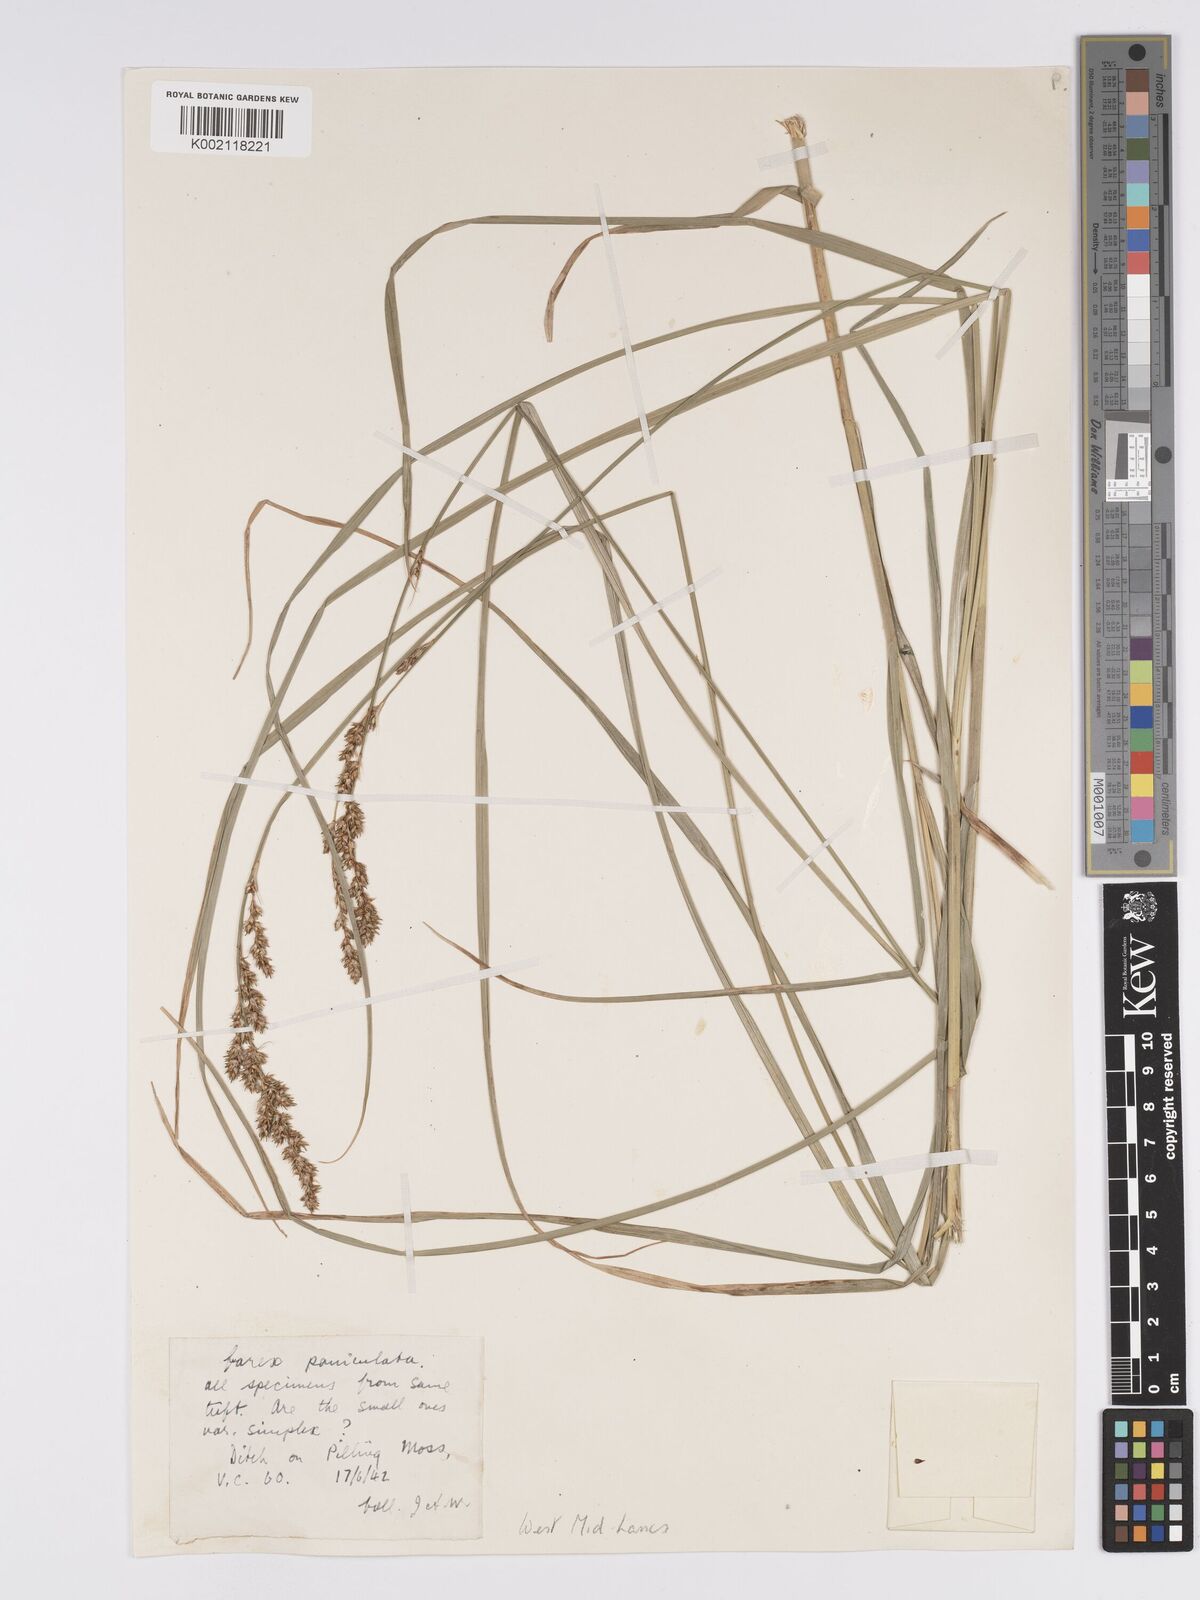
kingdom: Plantae
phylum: Tracheophyta
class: Liliopsida
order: Poales
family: Cyperaceae
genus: Carex
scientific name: Carex
